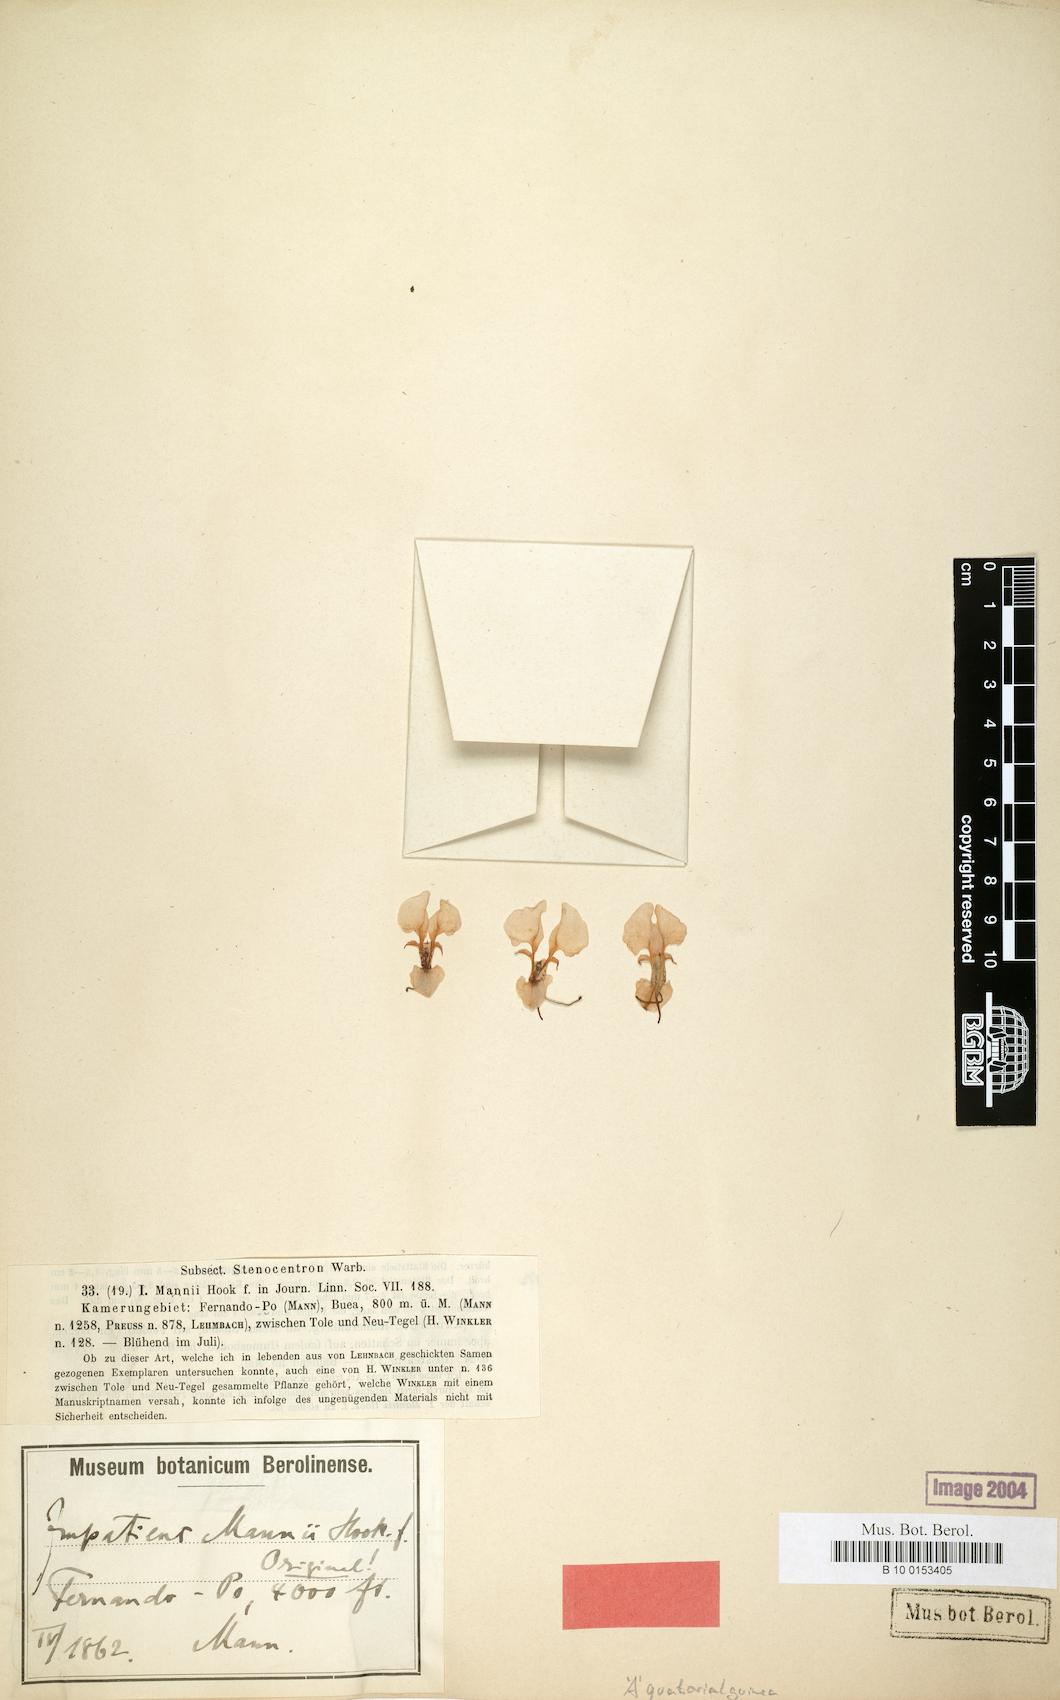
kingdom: Plantae
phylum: Tracheophyta
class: Magnoliopsida
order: Ericales
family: Balsaminaceae
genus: Impatiens
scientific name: Impatiens mannii
